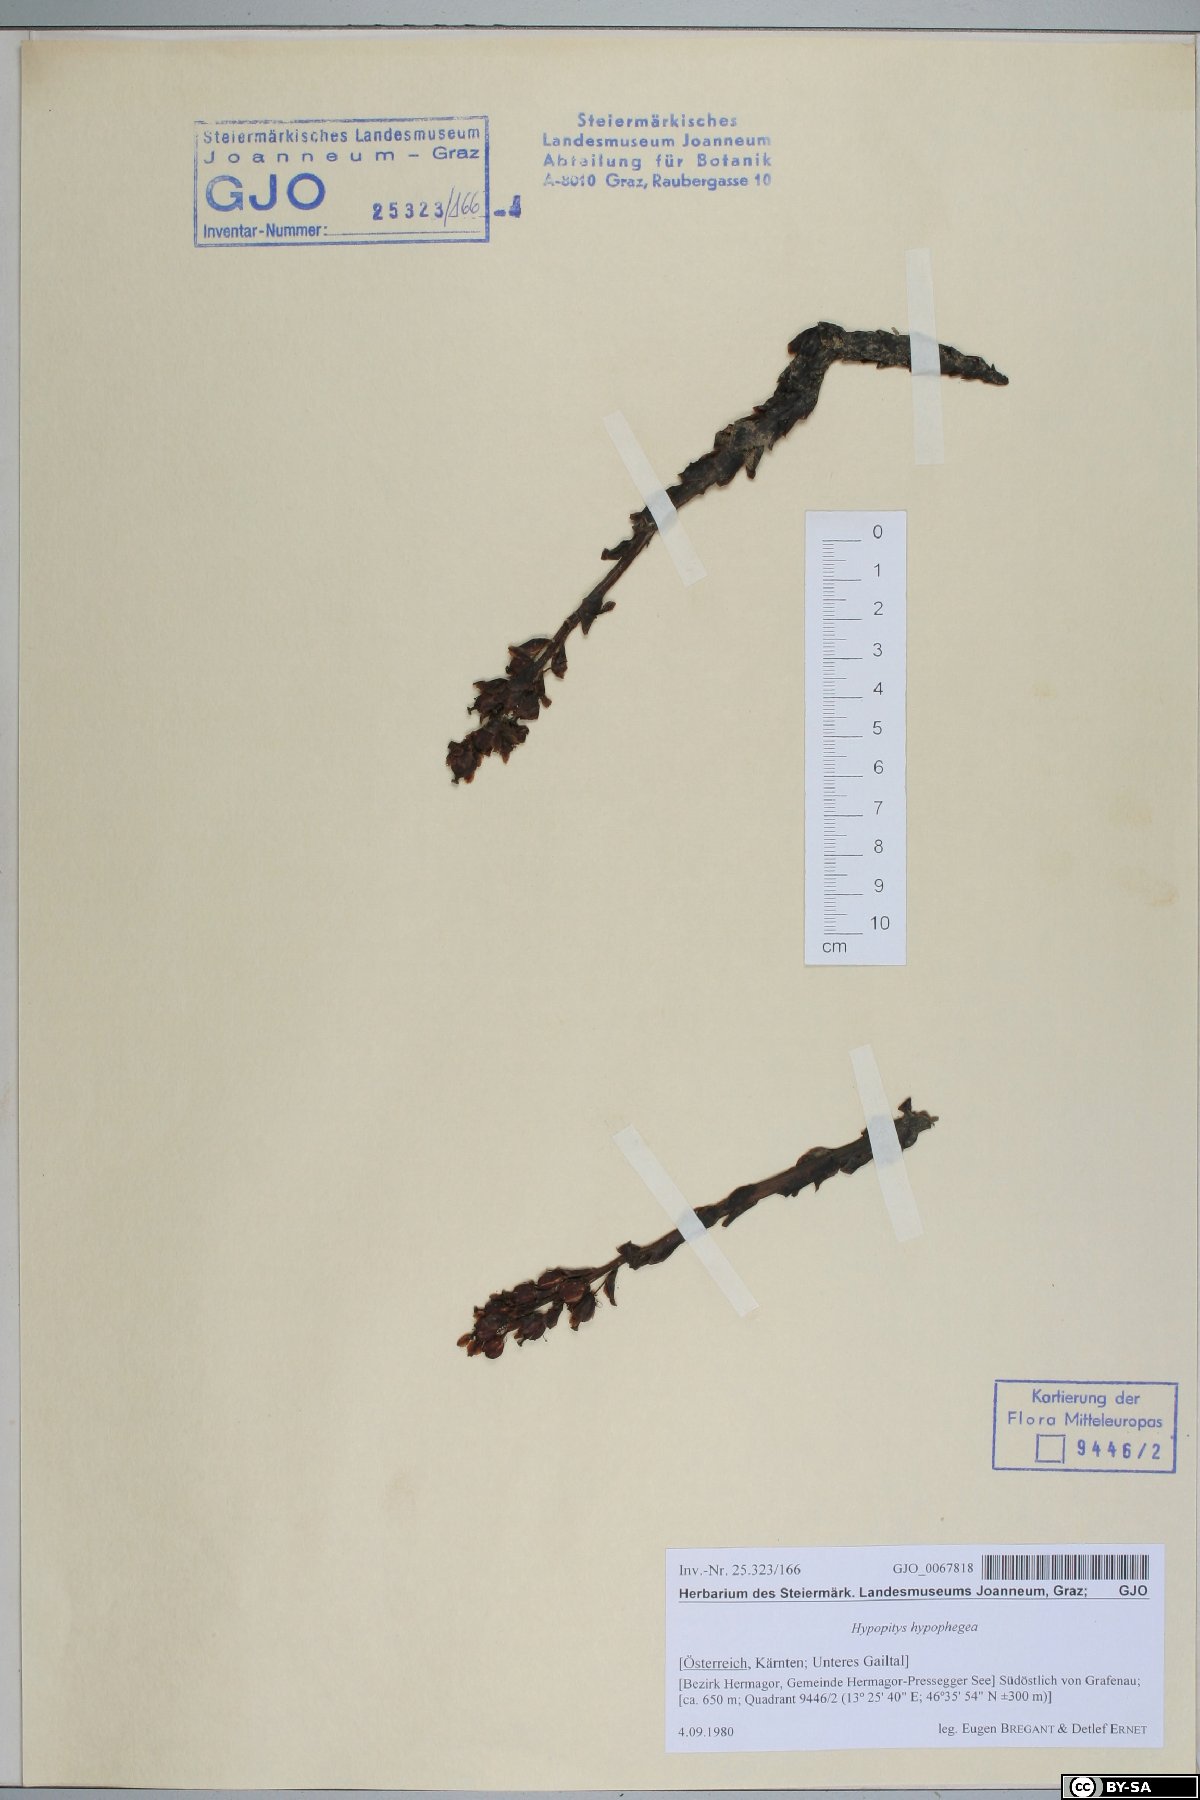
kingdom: Plantae
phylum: Tracheophyta
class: Magnoliopsida
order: Ericales
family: Ericaceae
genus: Hypopitys
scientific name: Hypopitys hypophegea
